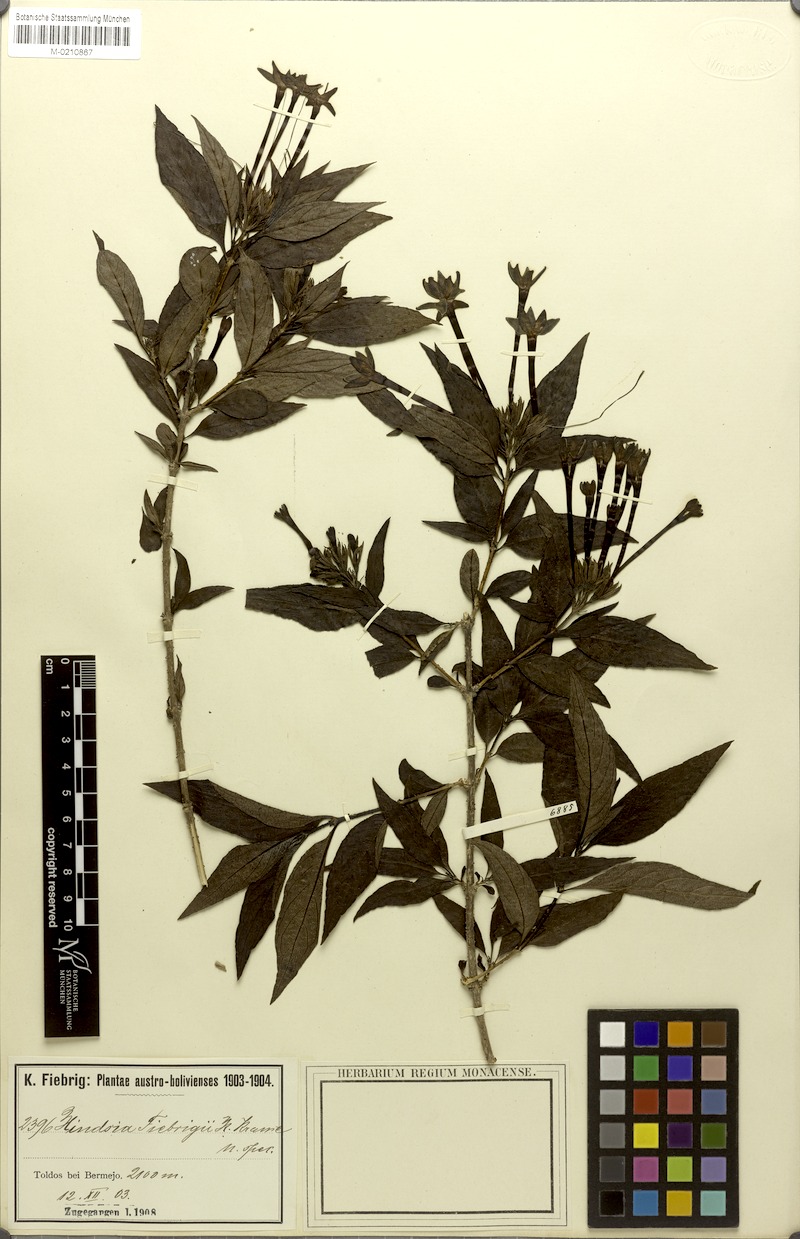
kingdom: Plantae
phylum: Tracheophyta
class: Magnoliopsida
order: Gentianales
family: Rubiaceae
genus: Heterophyllaea
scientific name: Heterophyllaea pustulata
